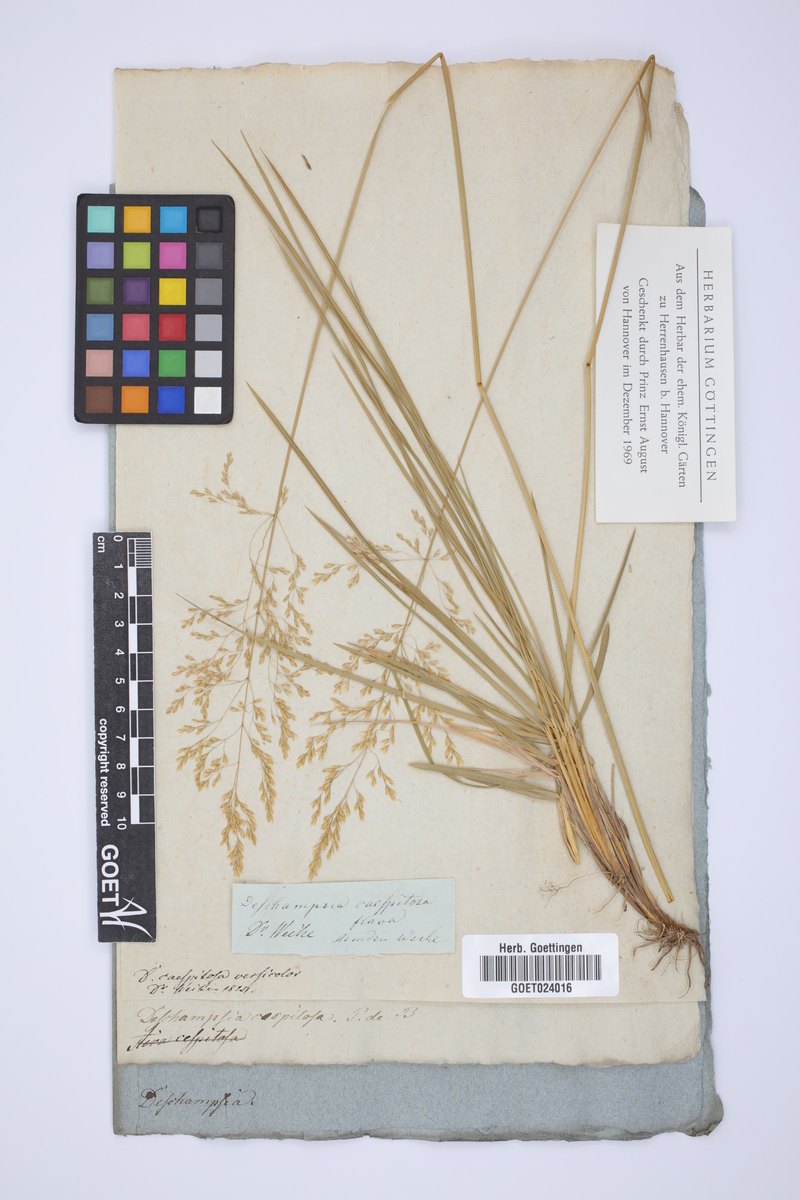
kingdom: Plantae
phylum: Tracheophyta
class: Liliopsida
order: Poales
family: Poaceae
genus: Deschampsia
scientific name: Deschampsia cespitosa
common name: Tufted hair-grass
